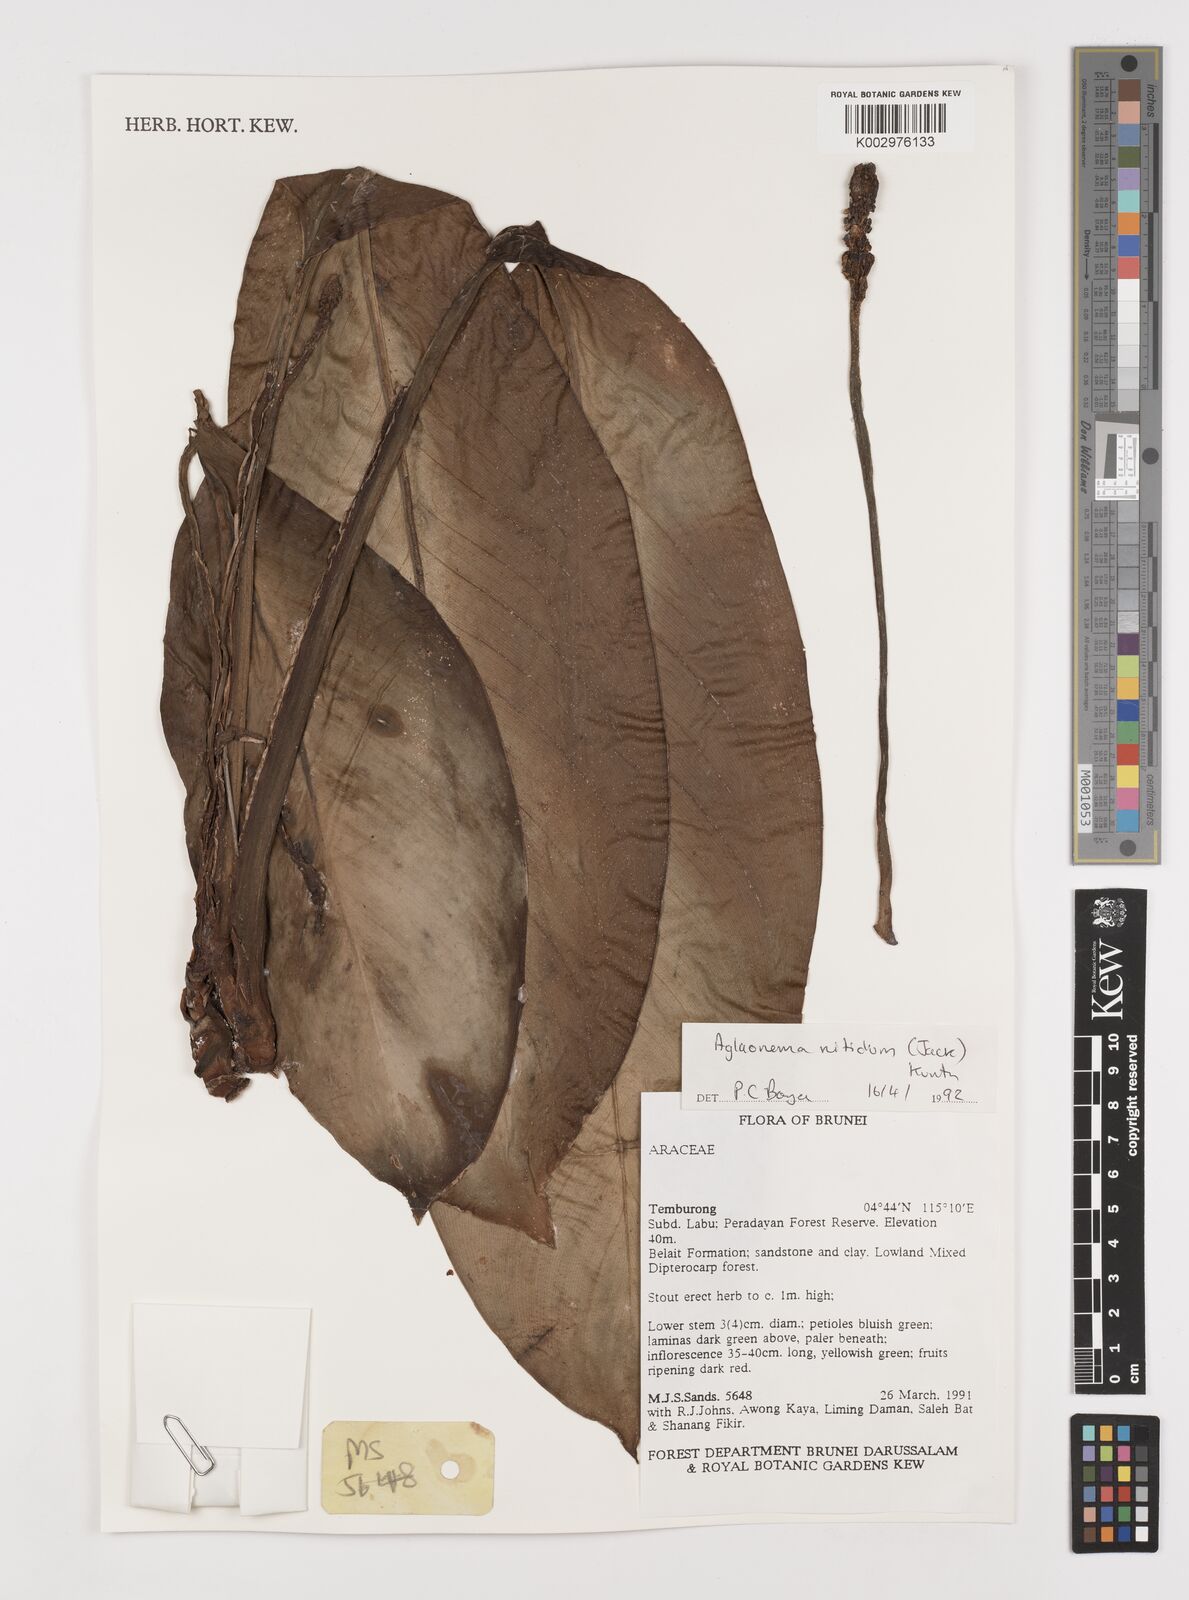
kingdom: Plantae
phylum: Tracheophyta
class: Liliopsida
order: Alismatales
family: Araceae
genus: Aglaonema
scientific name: Aglaonema nitidum
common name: Aglaonema aroid
